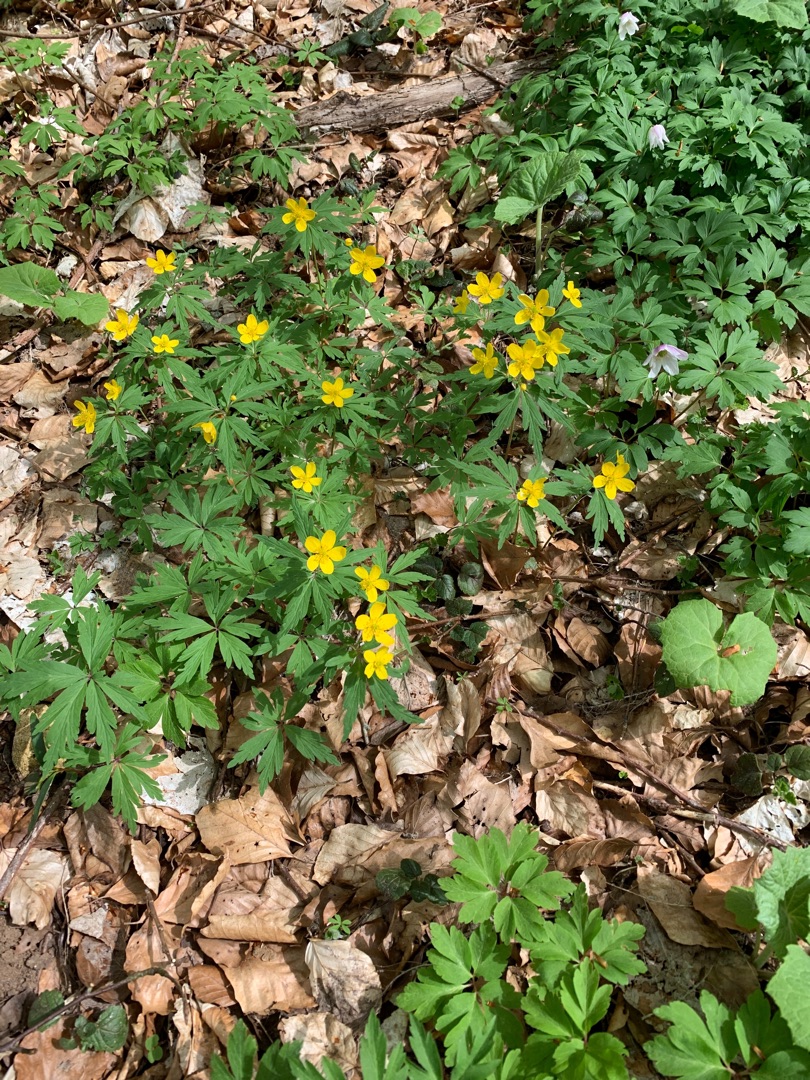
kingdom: Plantae
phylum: Tracheophyta
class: Magnoliopsida
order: Ranunculales
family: Ranunculaceae
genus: Anemone
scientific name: Anemone ranunculoides
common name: Gul anemone
